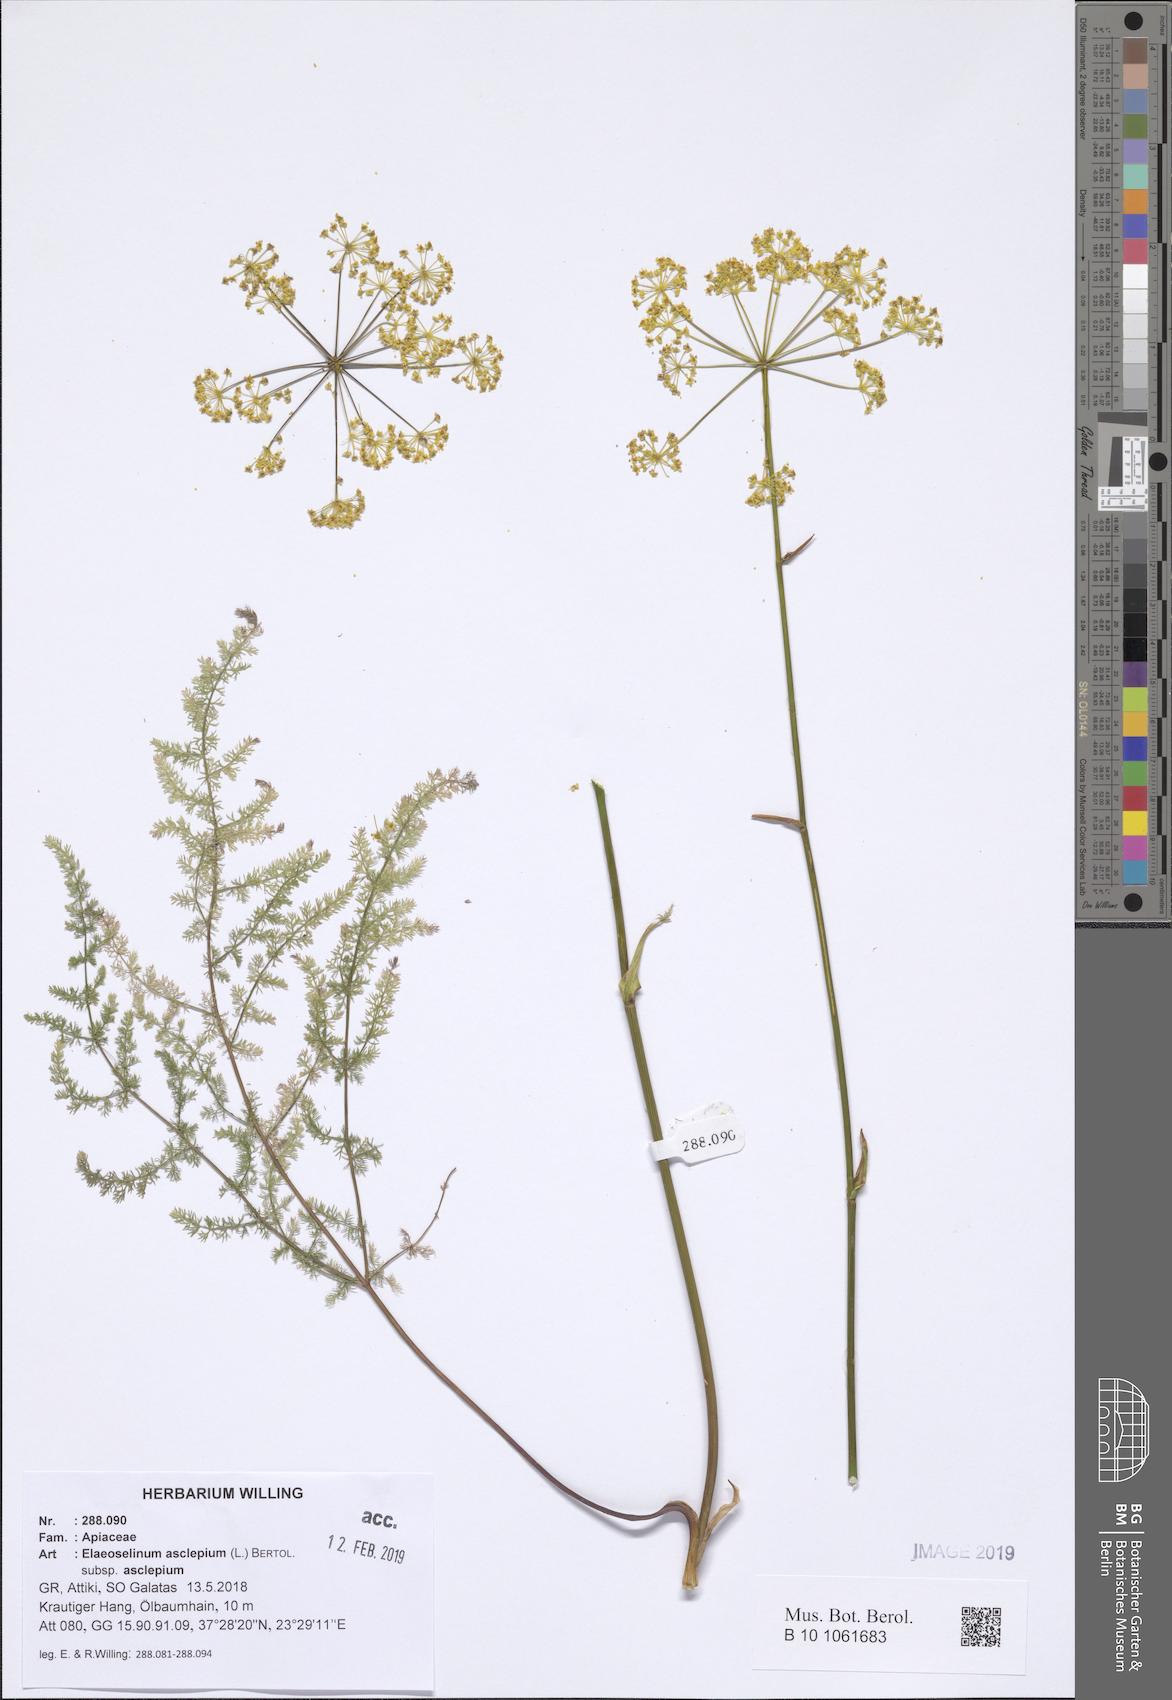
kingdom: Plantae
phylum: Tracheophyta
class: Magnoliopsida
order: Apiales
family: Apiaceae
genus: Thapsia
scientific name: Thapsia asclepium
